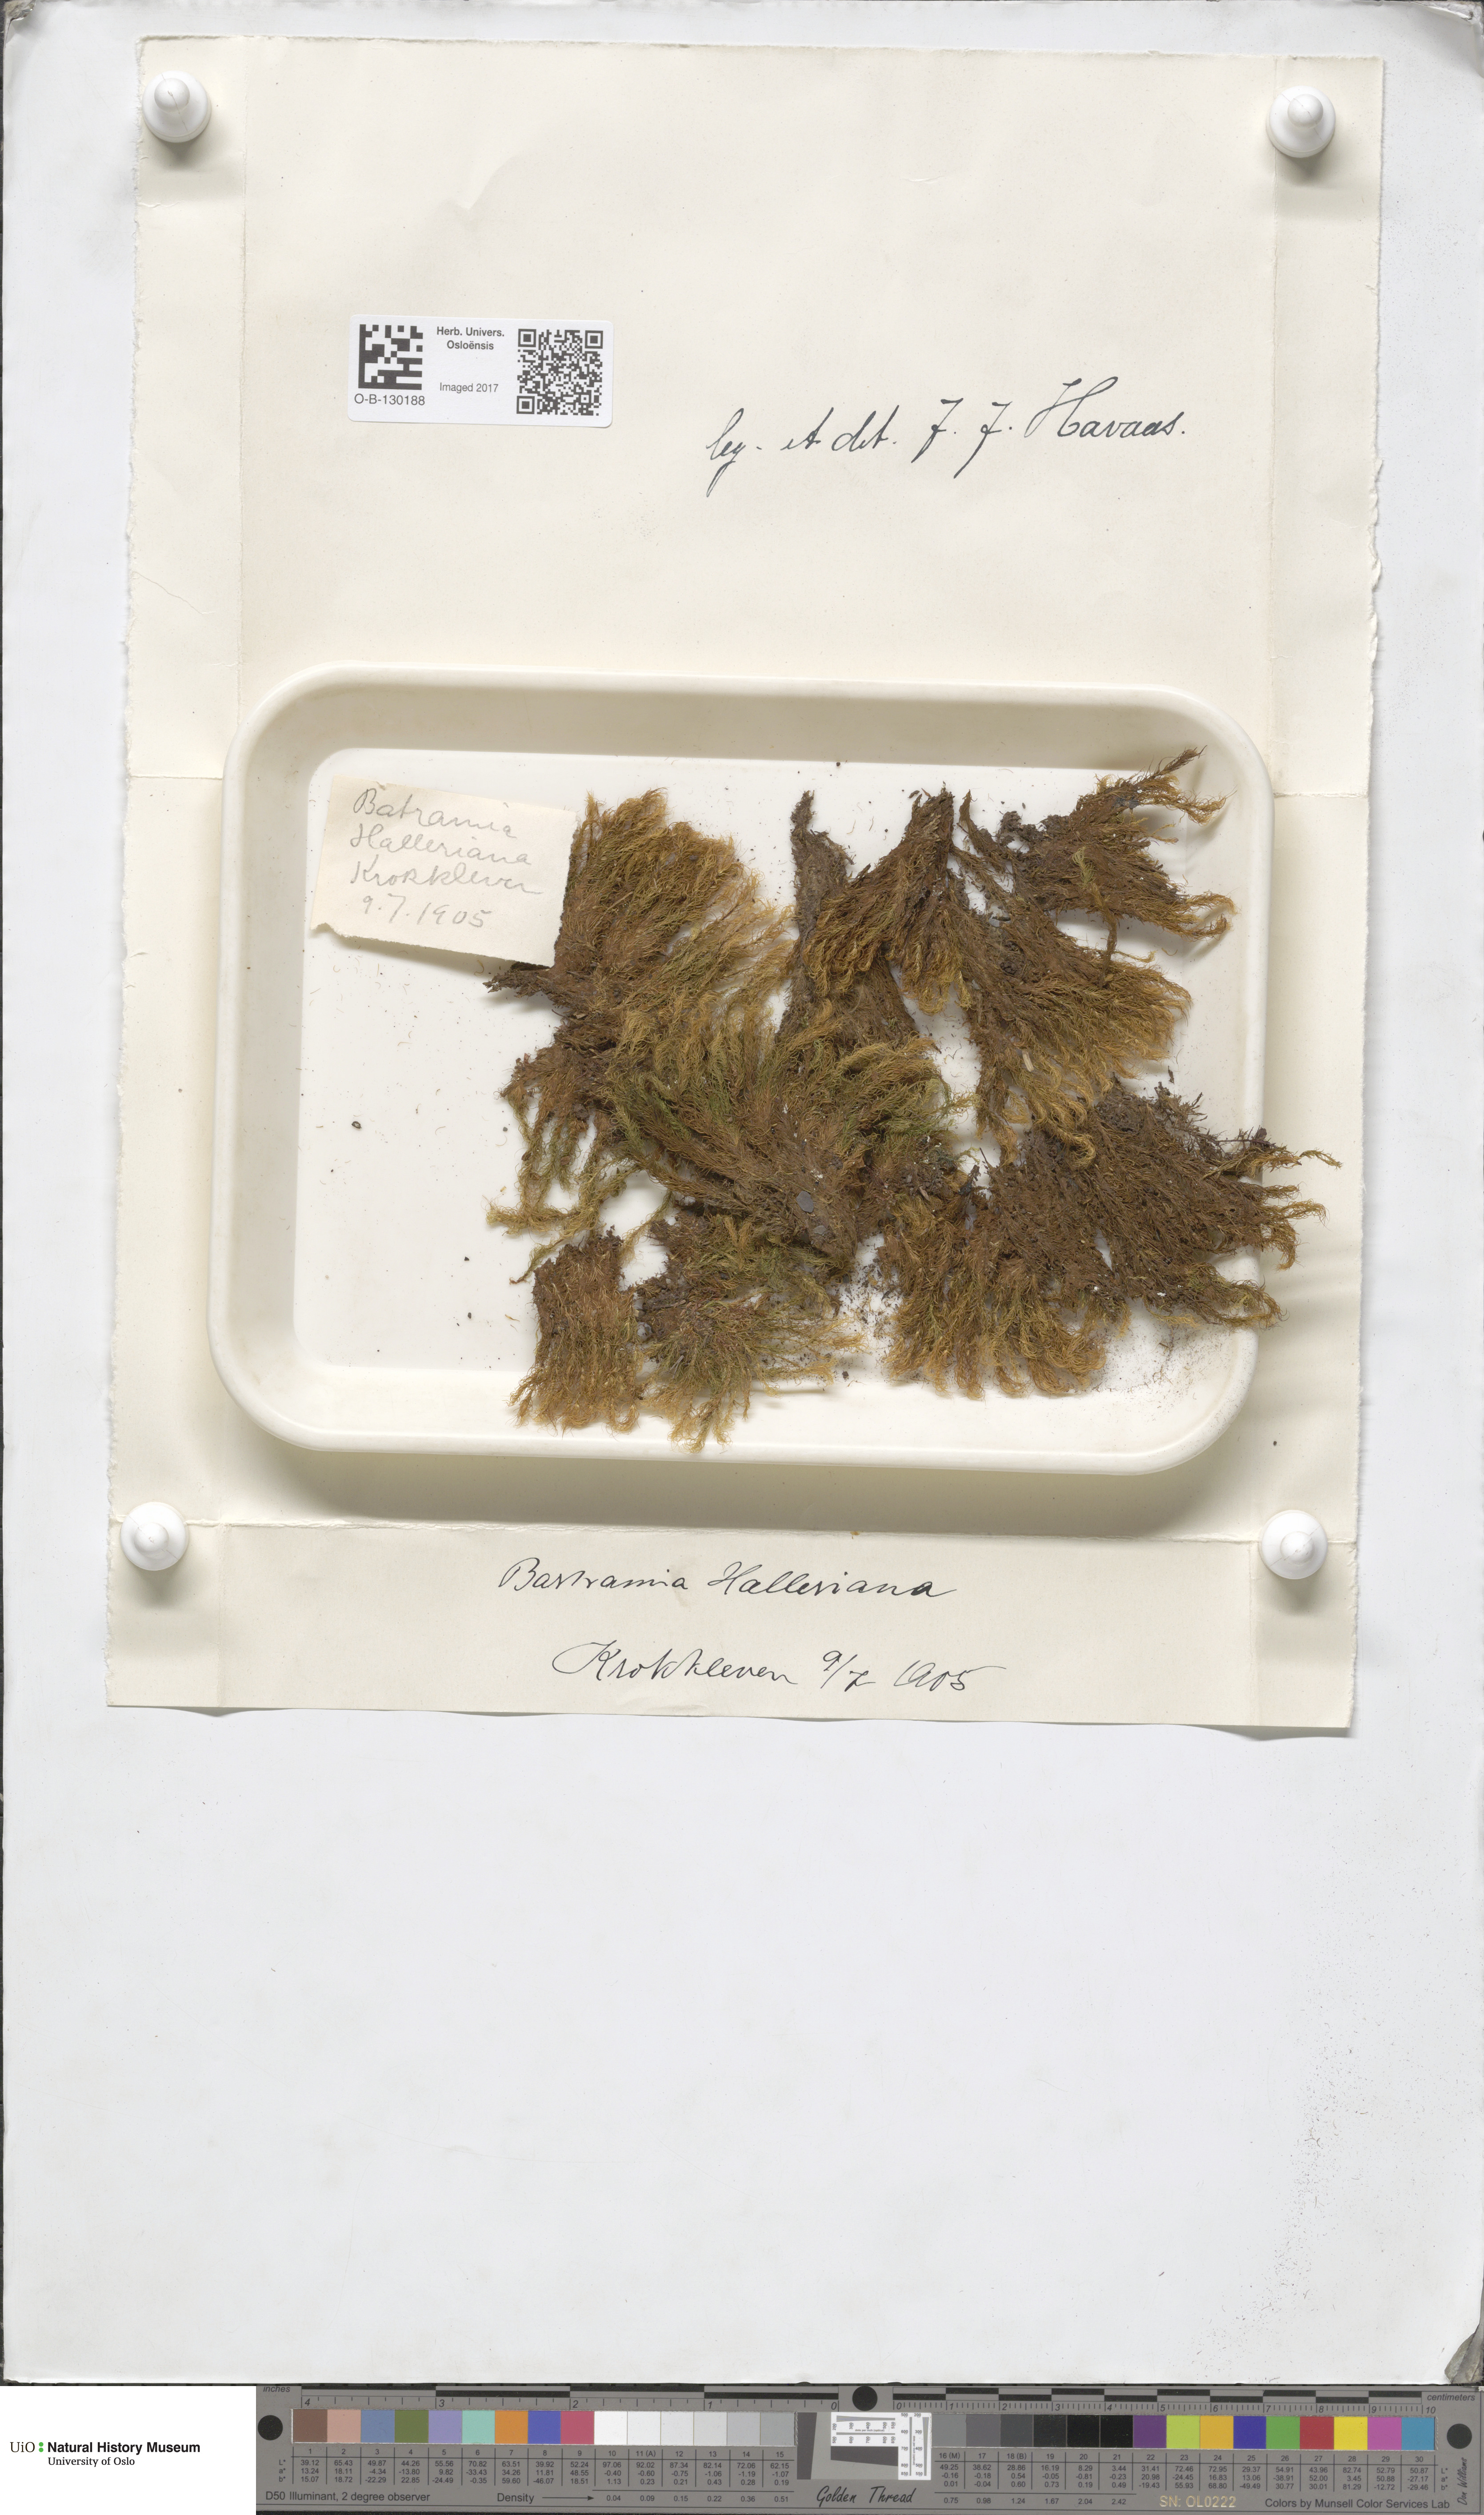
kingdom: Plantae
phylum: Bryophyta
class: Bryopsida
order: Bartramiales
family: Bartramiaceae
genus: Bartramia
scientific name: Bartramia halleriana
